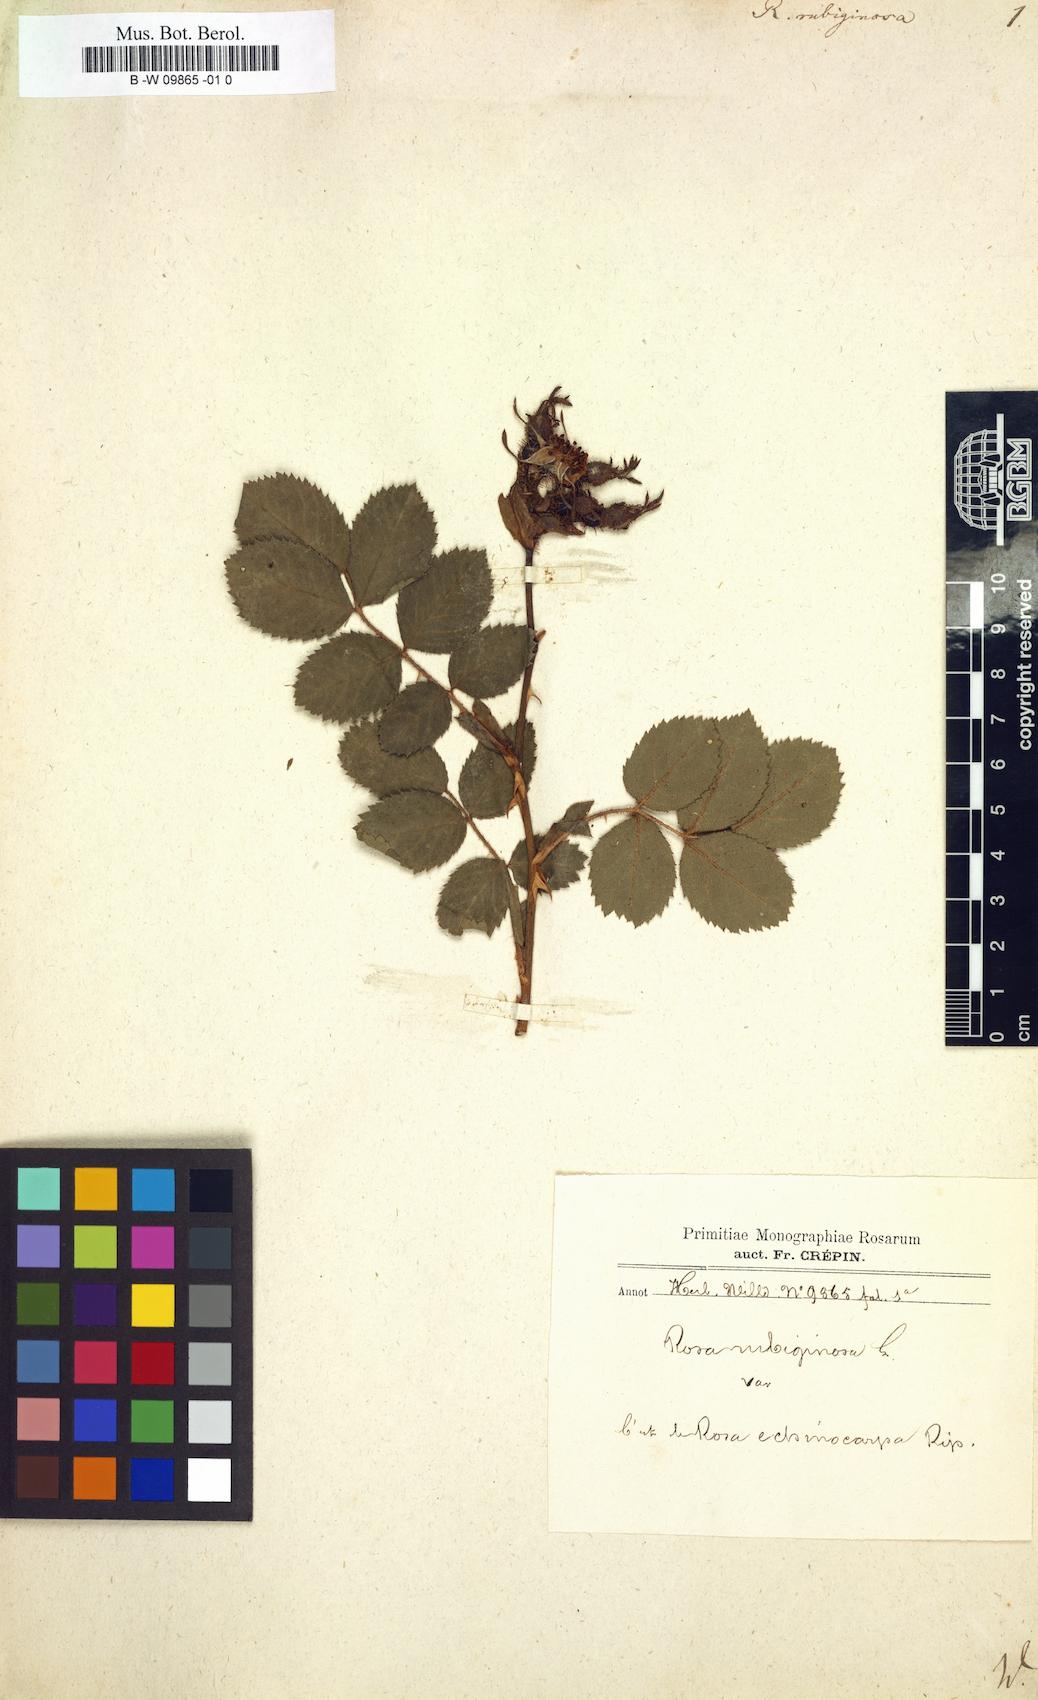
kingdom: Plantae
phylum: Tracheophyta
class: Magnoliopsida
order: Rosales
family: Rosaceae
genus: Rosa
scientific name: Rosa rubiginosa
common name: Sweet-briar
